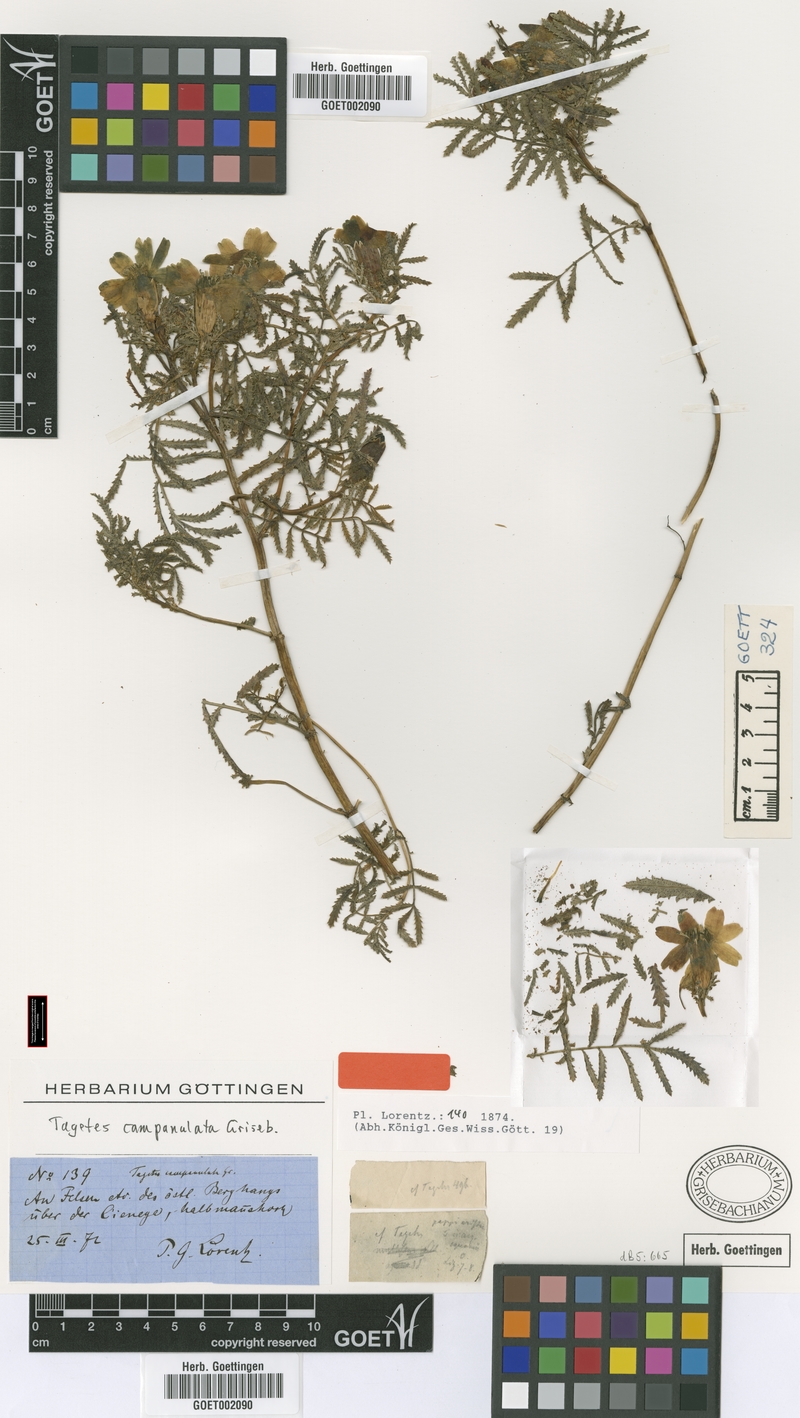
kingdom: Plantae
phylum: Tracheophyta
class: Magnoliopsida
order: Asterales
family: Asteraceae
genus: Tagetes
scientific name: Tagetes campanulata
